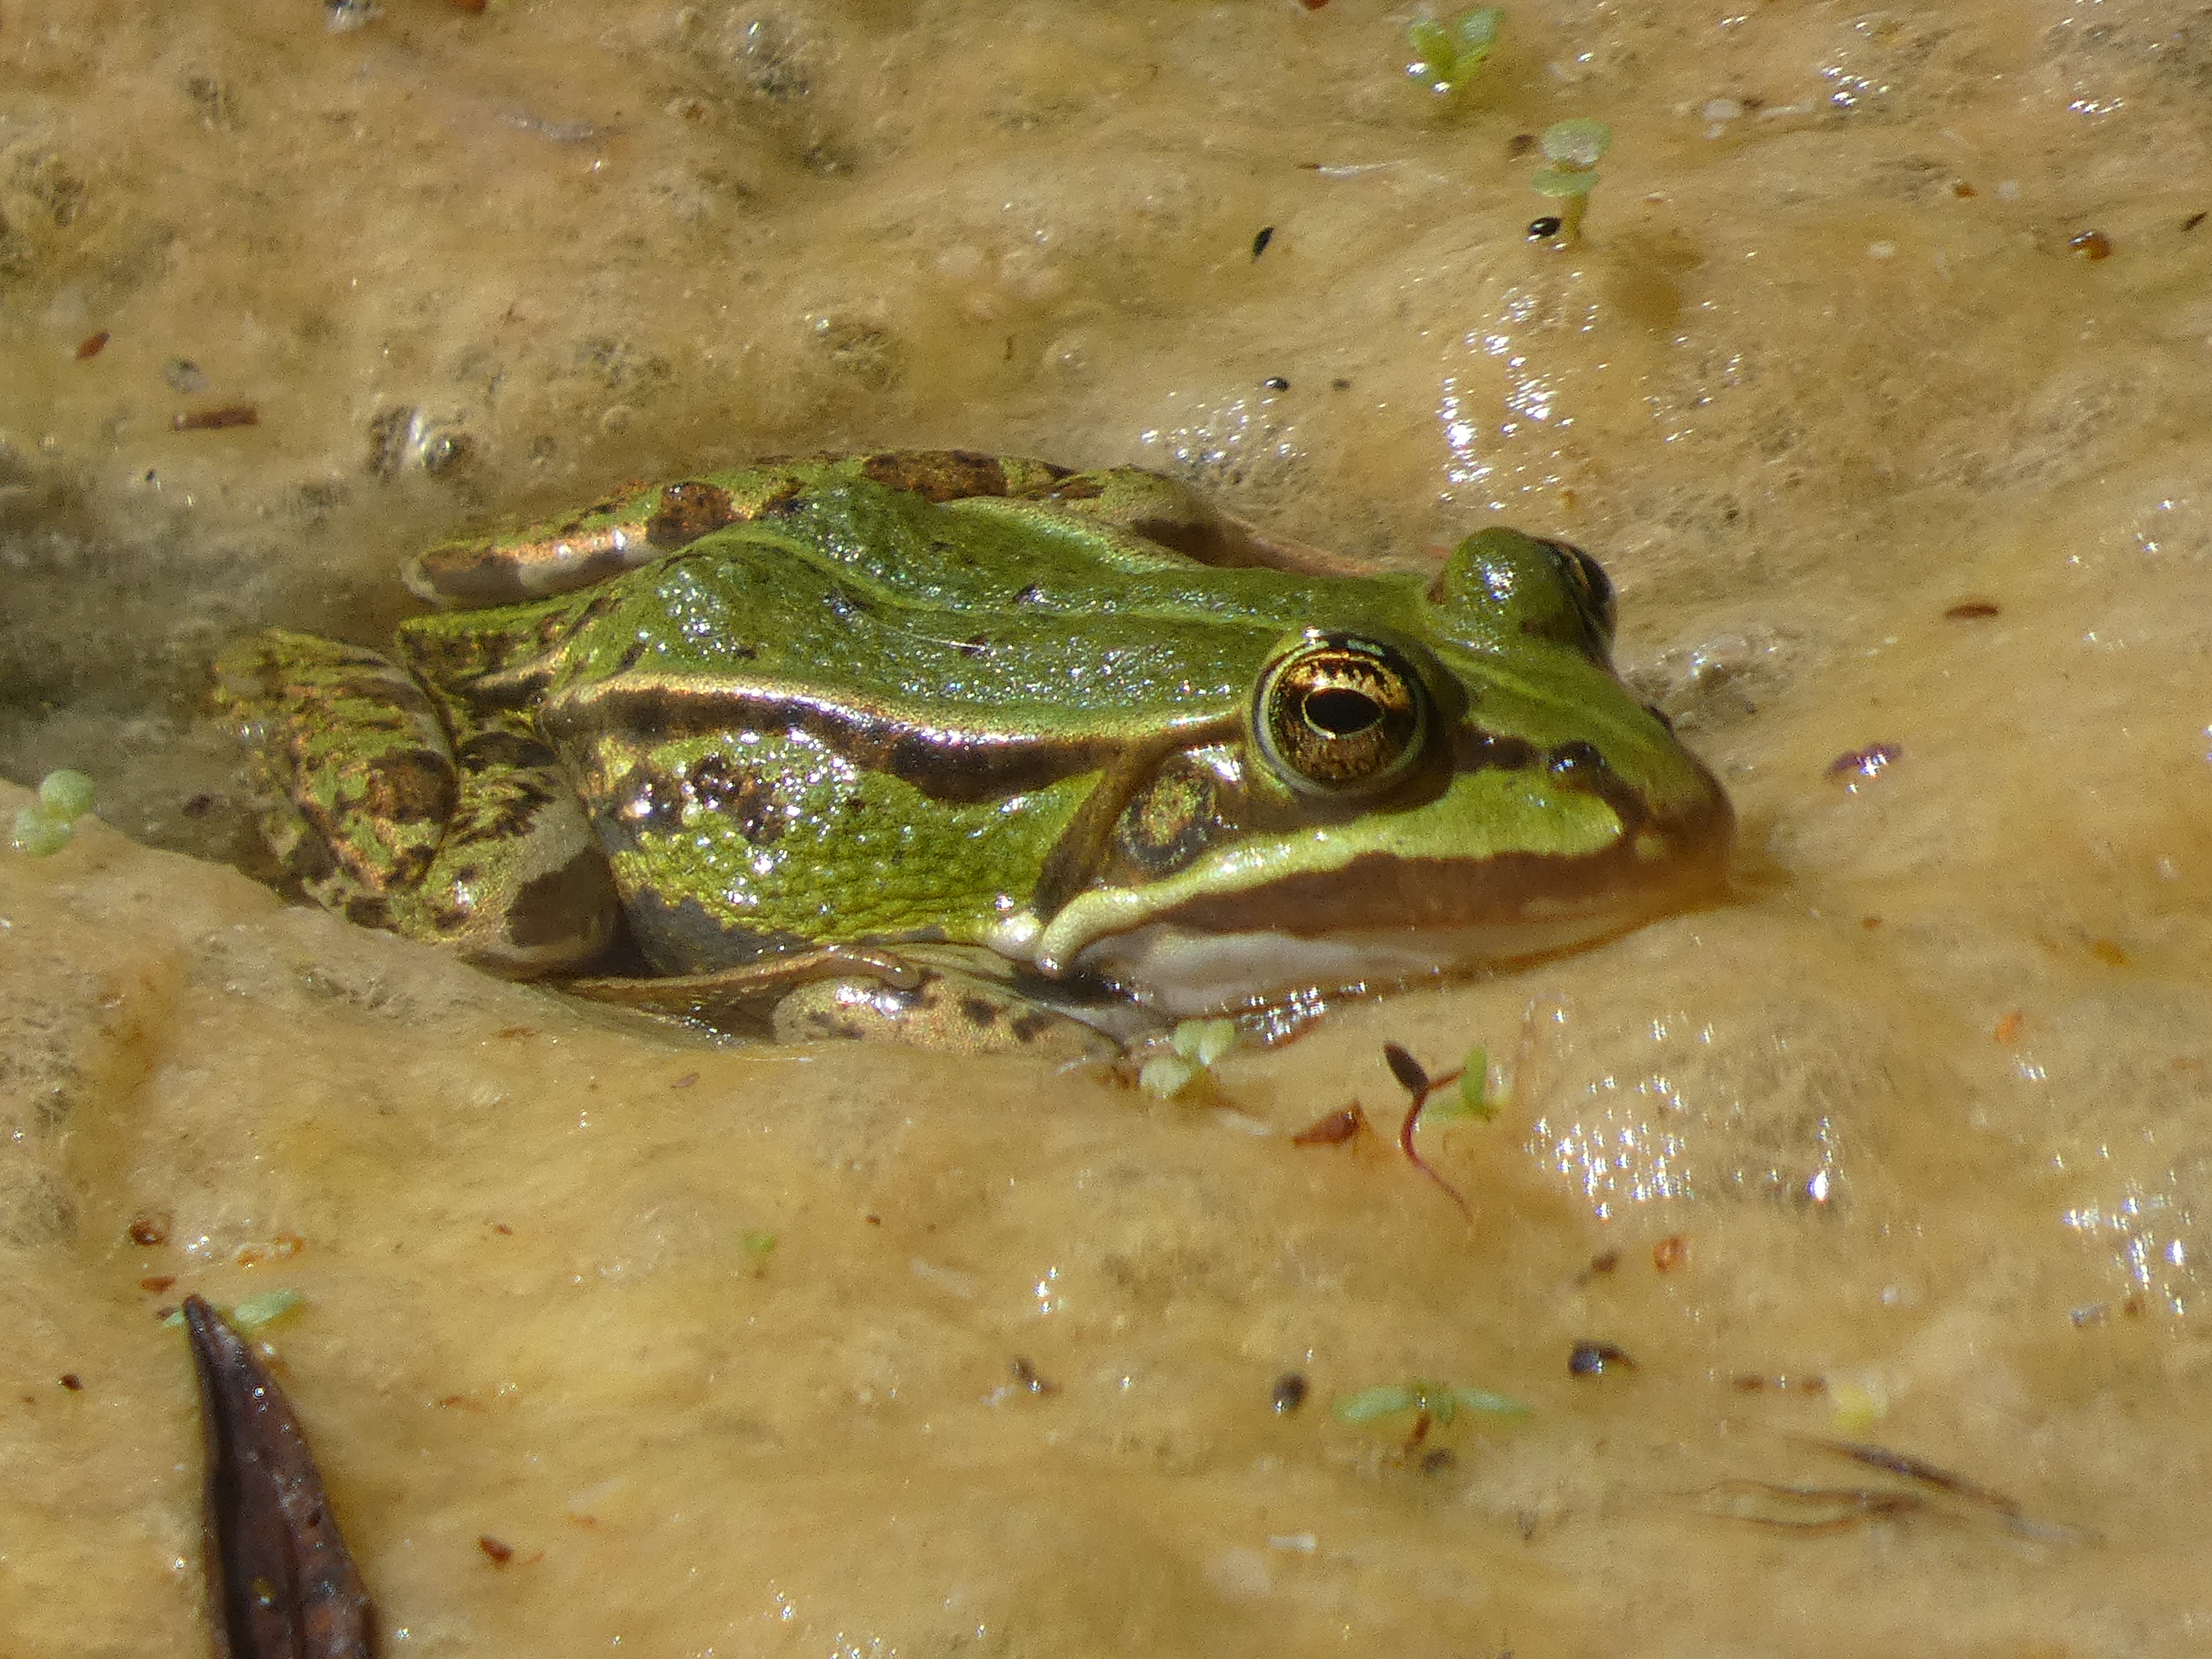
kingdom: Animalia
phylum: Chordata
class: Amphibia
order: Anura
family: Ranidae
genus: Pelophylax
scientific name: Pelophylax lessonae
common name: Grøn frø
